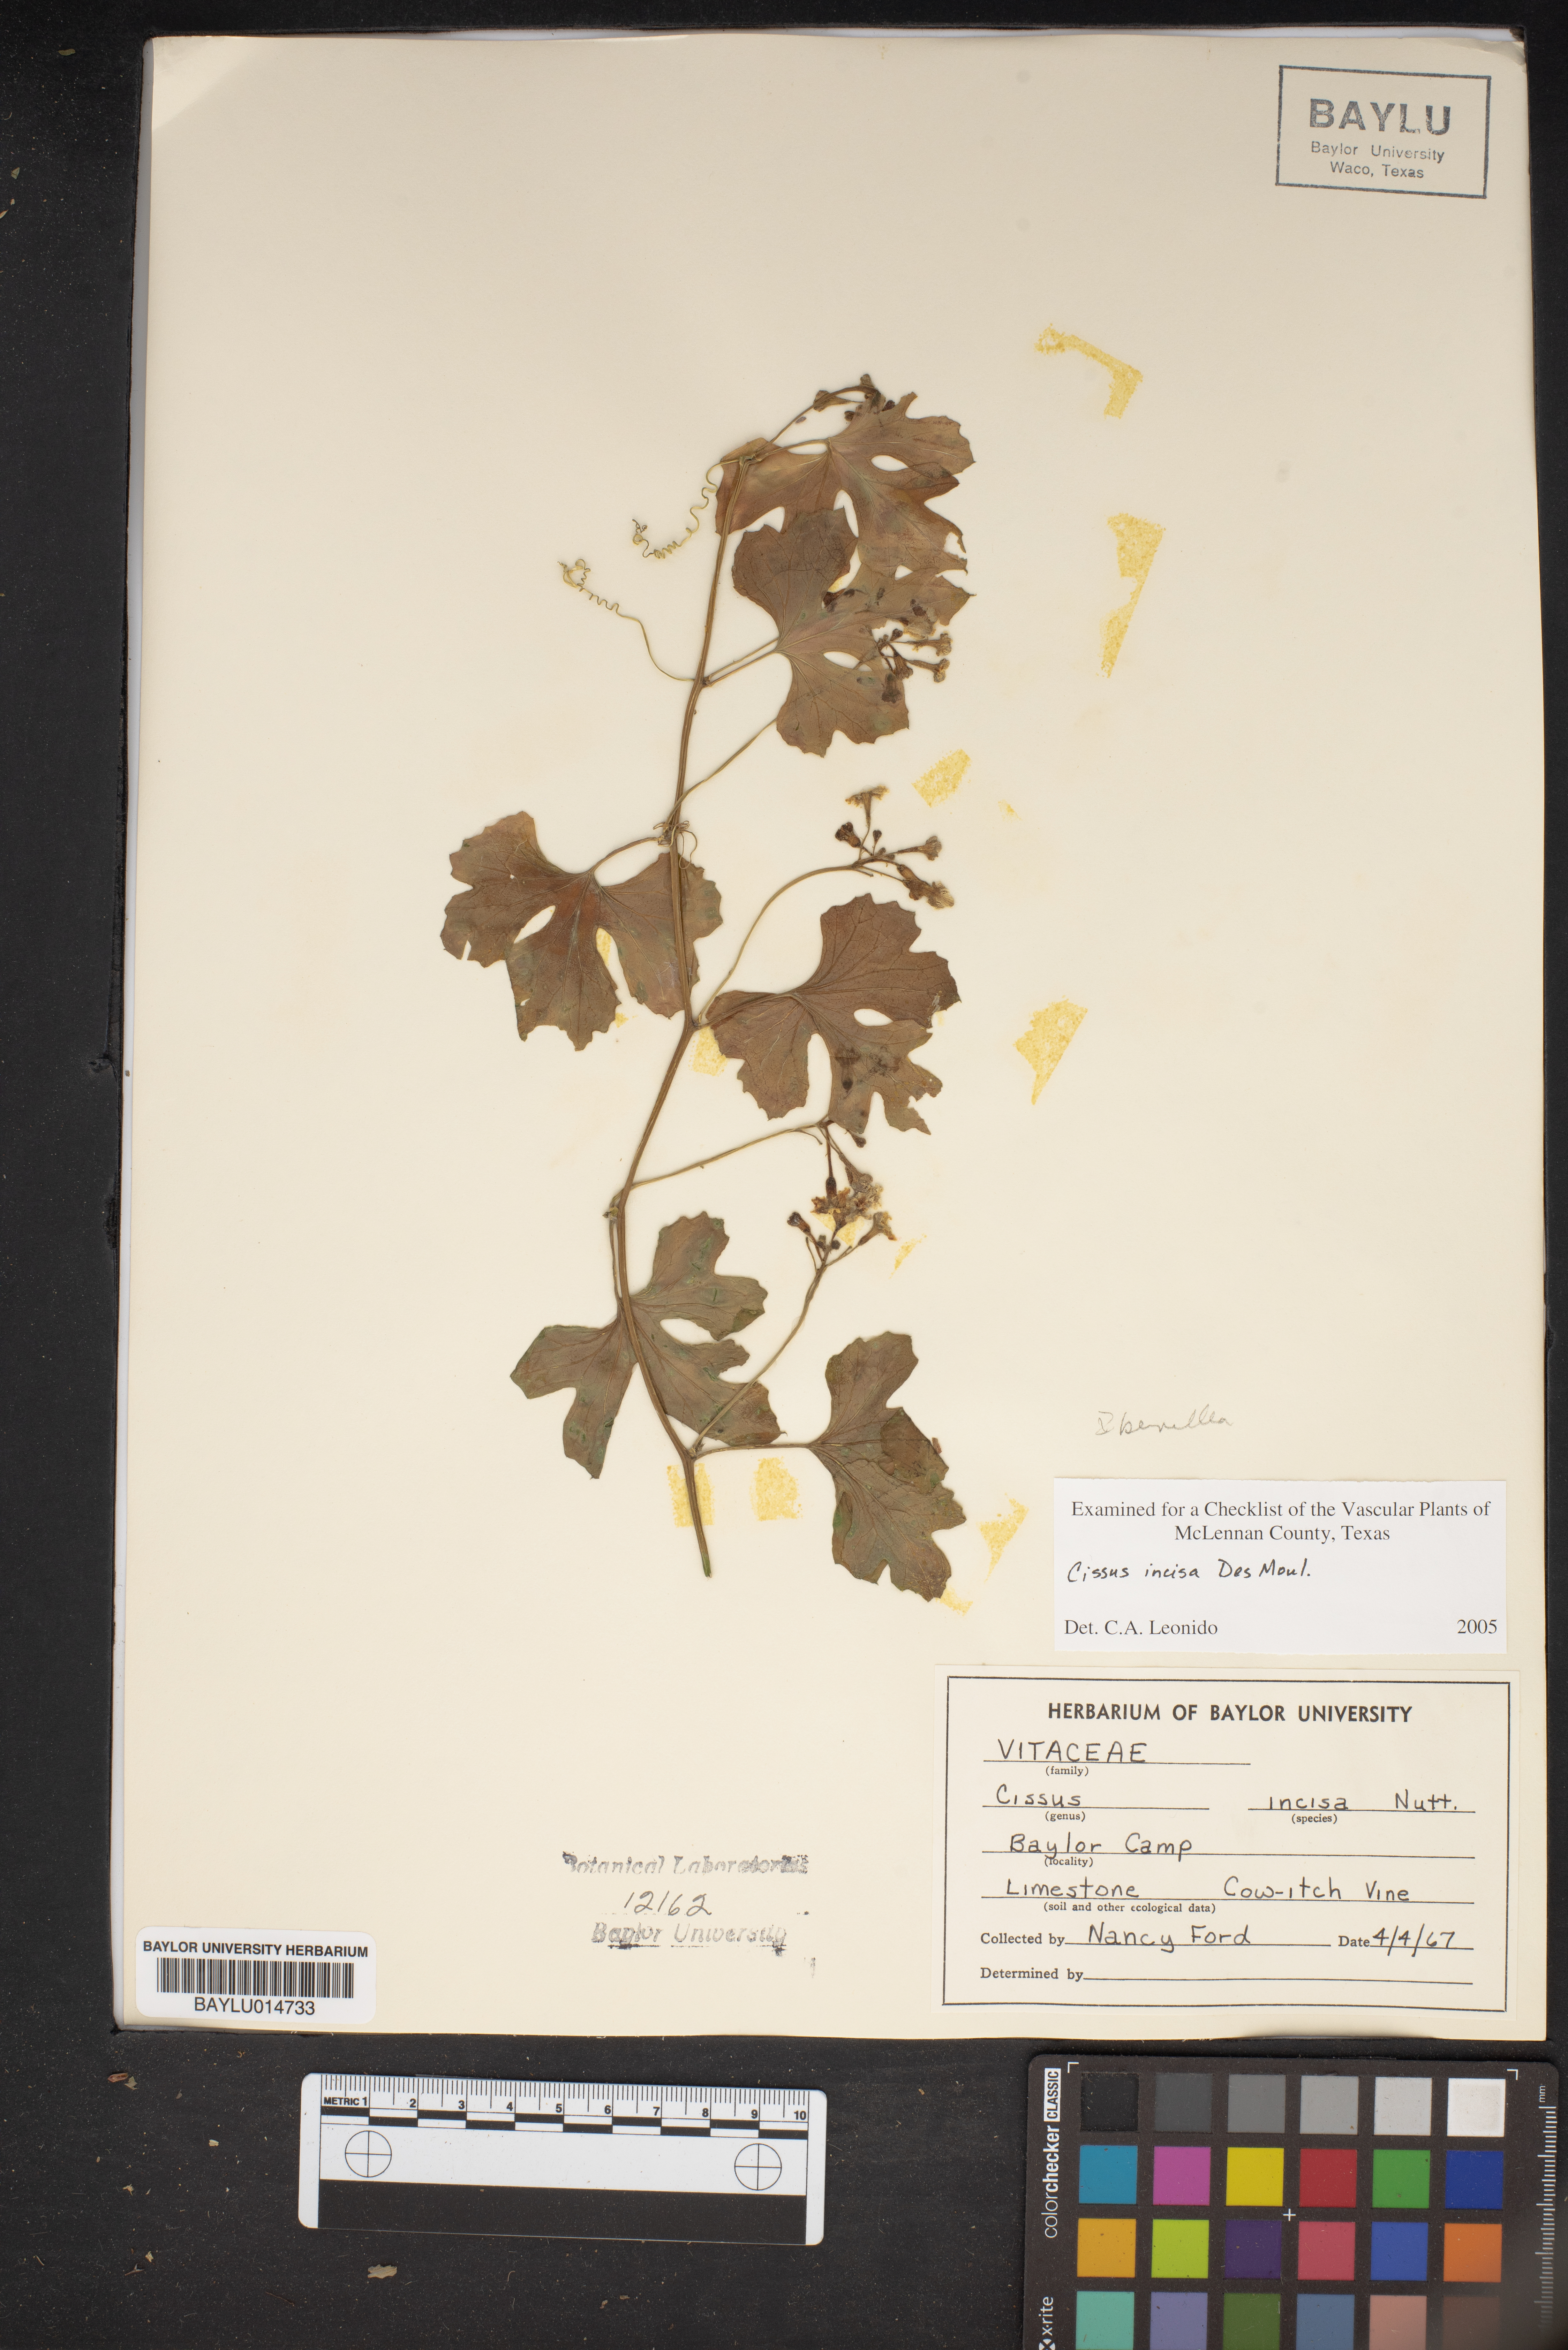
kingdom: Plantae
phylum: Tracheophyta
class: Magnoliopsida
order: Vitales
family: Vitaceae
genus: Cissus
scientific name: Cissus trifoliata
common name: Vine-sorrel
